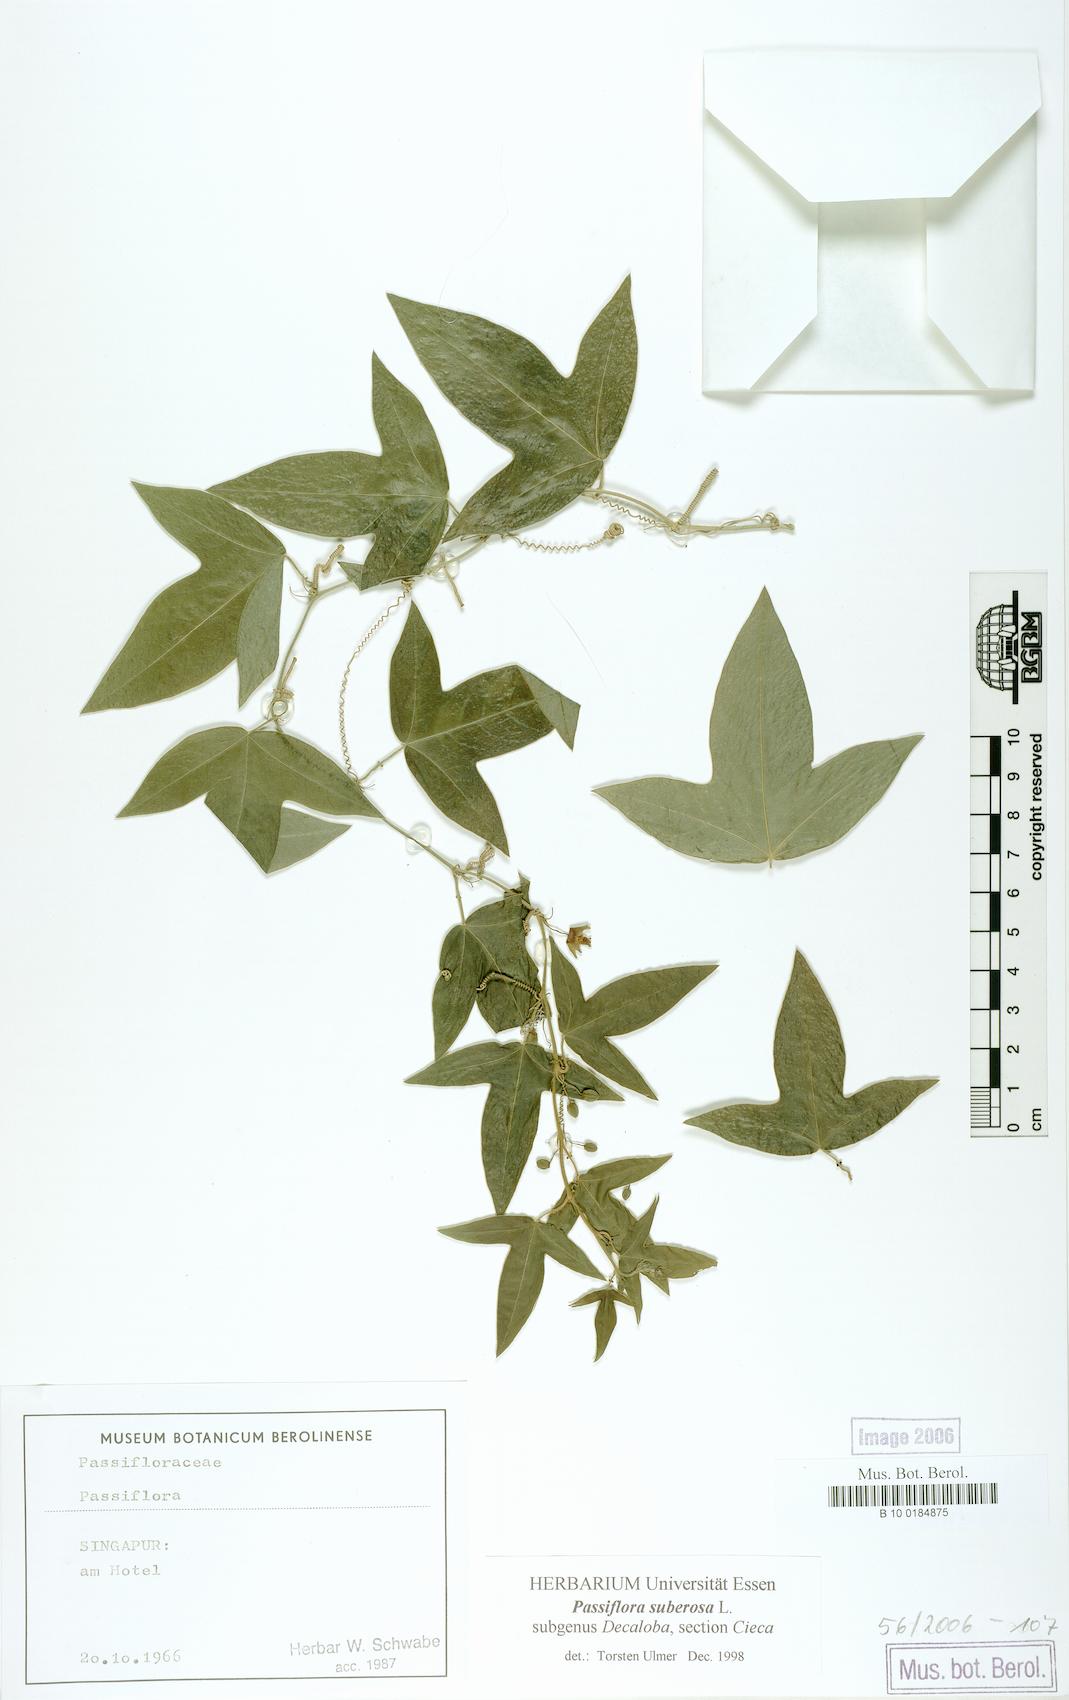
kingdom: Plantae
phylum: Tracheophyta
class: Magnoliopsida
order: Malpighiales
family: Passifloraceae
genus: Passiflora
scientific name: Passiflora suberosa
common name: Wild passionfruit
